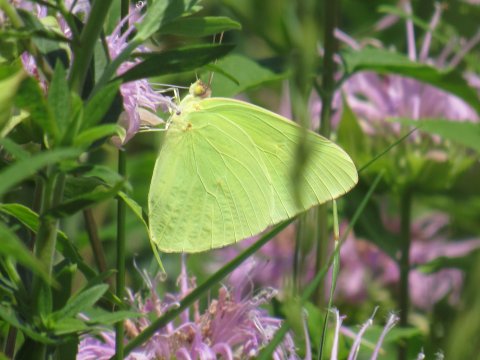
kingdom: Animalia
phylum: Arthropoda
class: Insecta
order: Lepidoptera
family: Pieridae
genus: Phoebis
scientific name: Phoebis sennae
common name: Cloudless Sulphur
